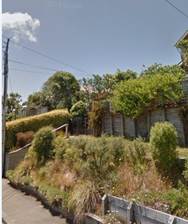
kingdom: Plantae
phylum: Tracheophyta
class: Magnoliopsida
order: Asterales
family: Campanulaceae
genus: Lobelia
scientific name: Lobelia erinus
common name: Edging lobelia
